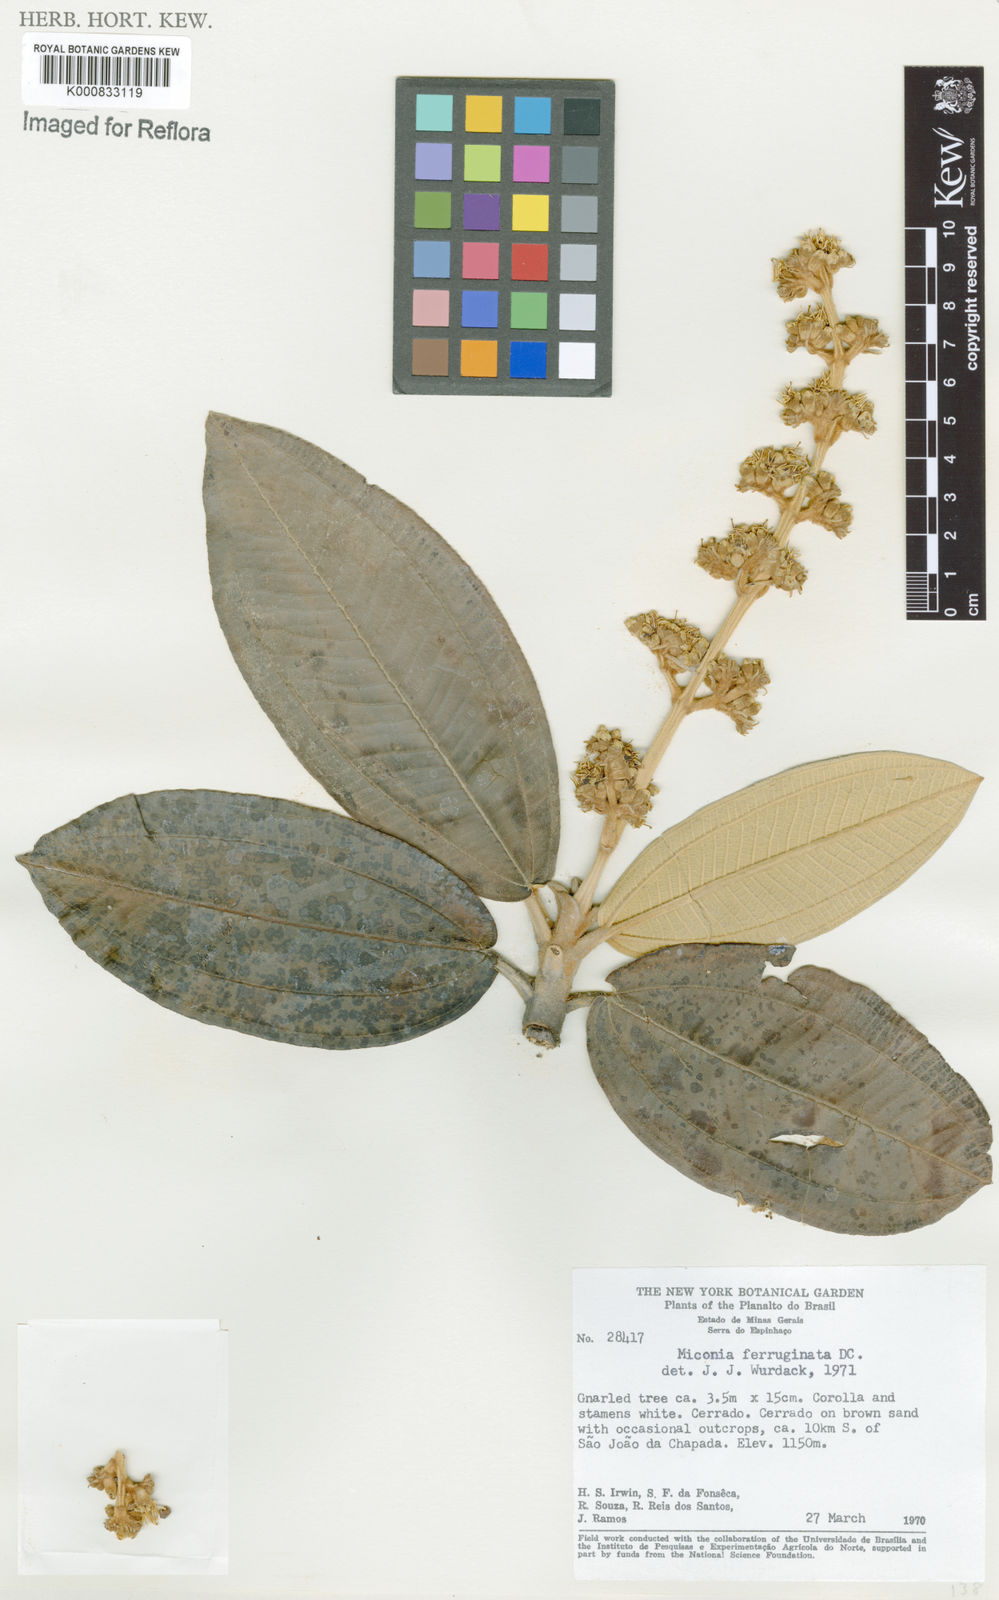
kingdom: Plantae
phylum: Tracheophyta
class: Magnoliopsida
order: Myrtales
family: Melastomataceae
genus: Miconia
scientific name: Miconia ferruginata
